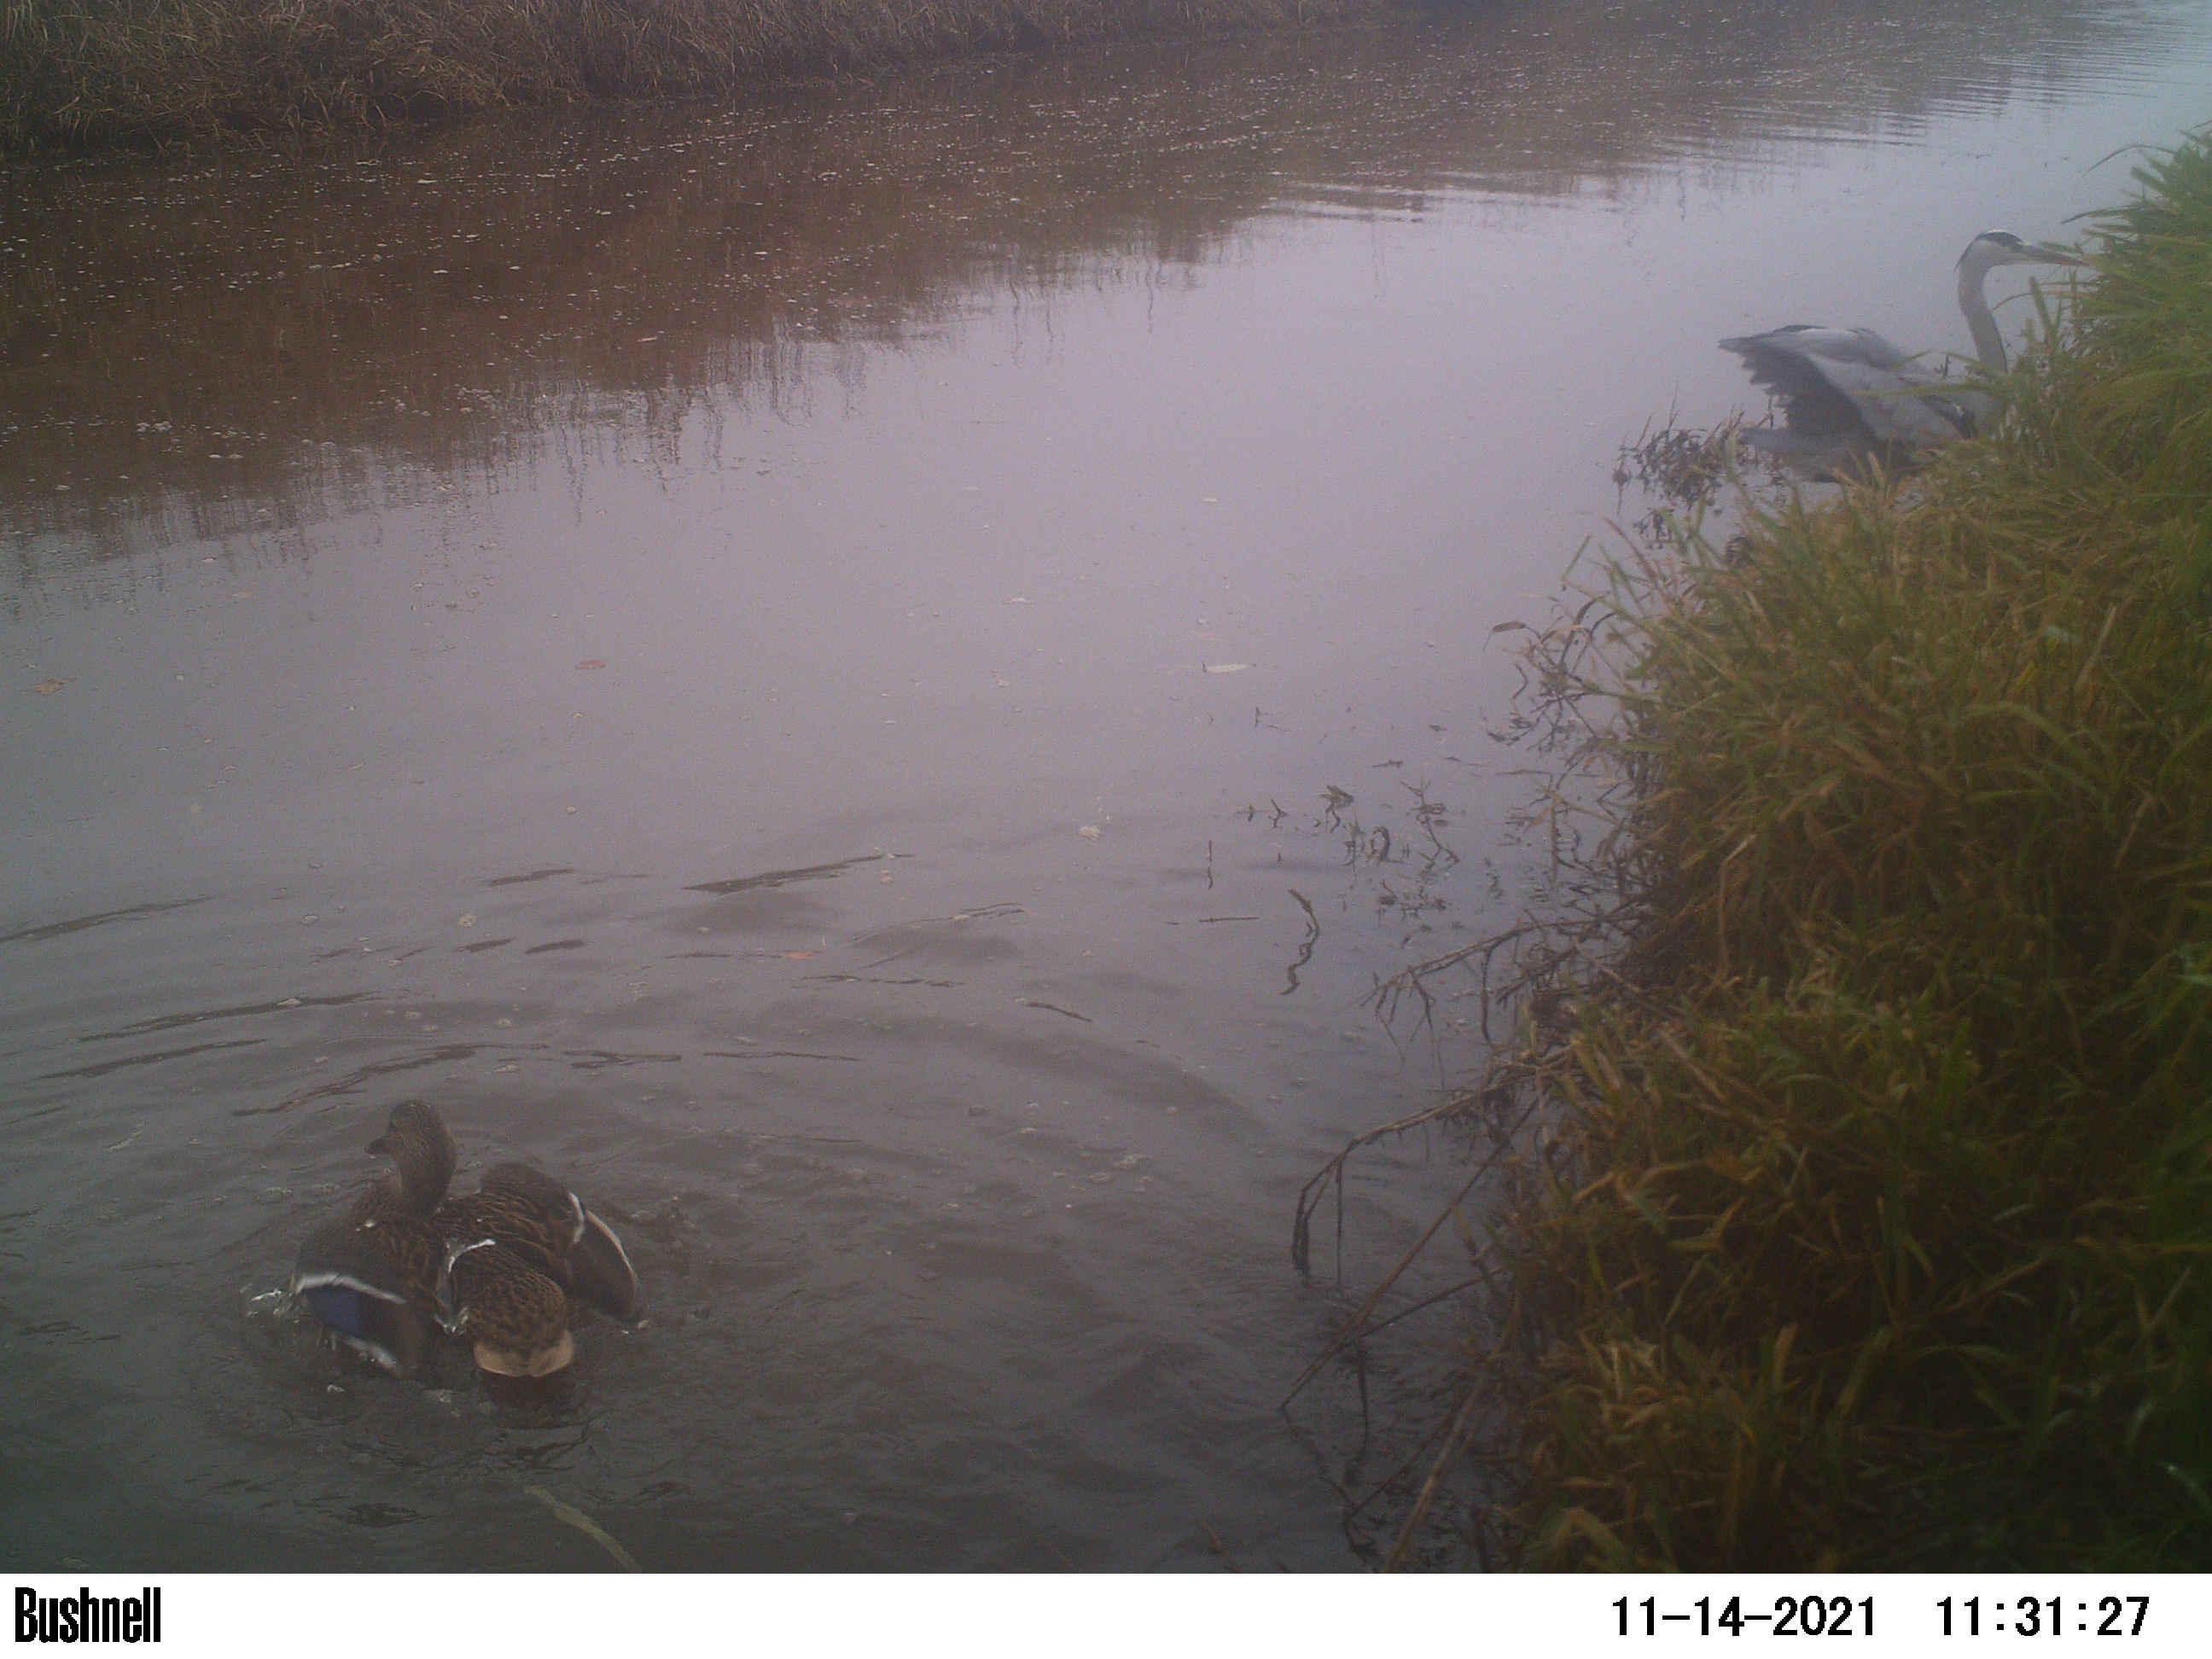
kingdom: Animalia
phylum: Chordata
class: Aves
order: Pelecaniformes
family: Ardeidae
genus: Ardea
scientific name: Ardea cinerea
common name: Grey heron
